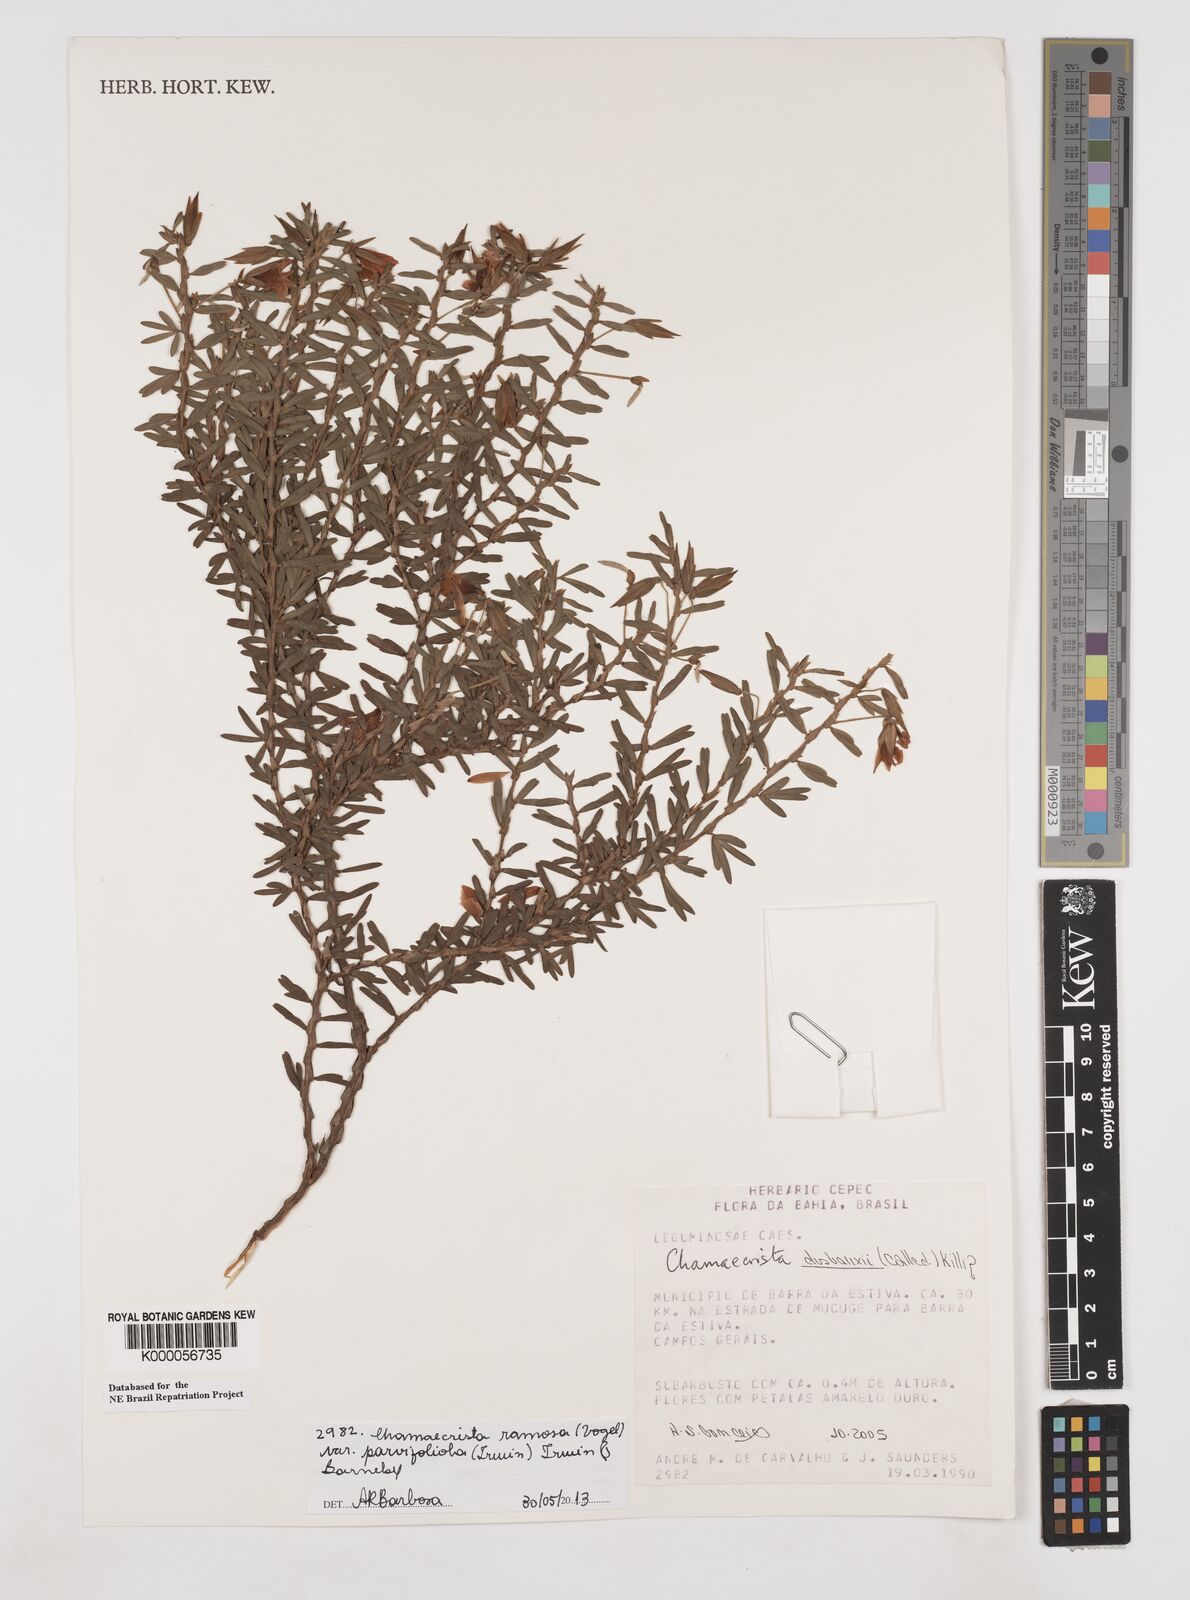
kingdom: Plantae
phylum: Tracheophyta
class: Magnoliopsida
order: Fabales
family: Fabaceae
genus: Chamaecrista
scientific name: Chamaecrista
